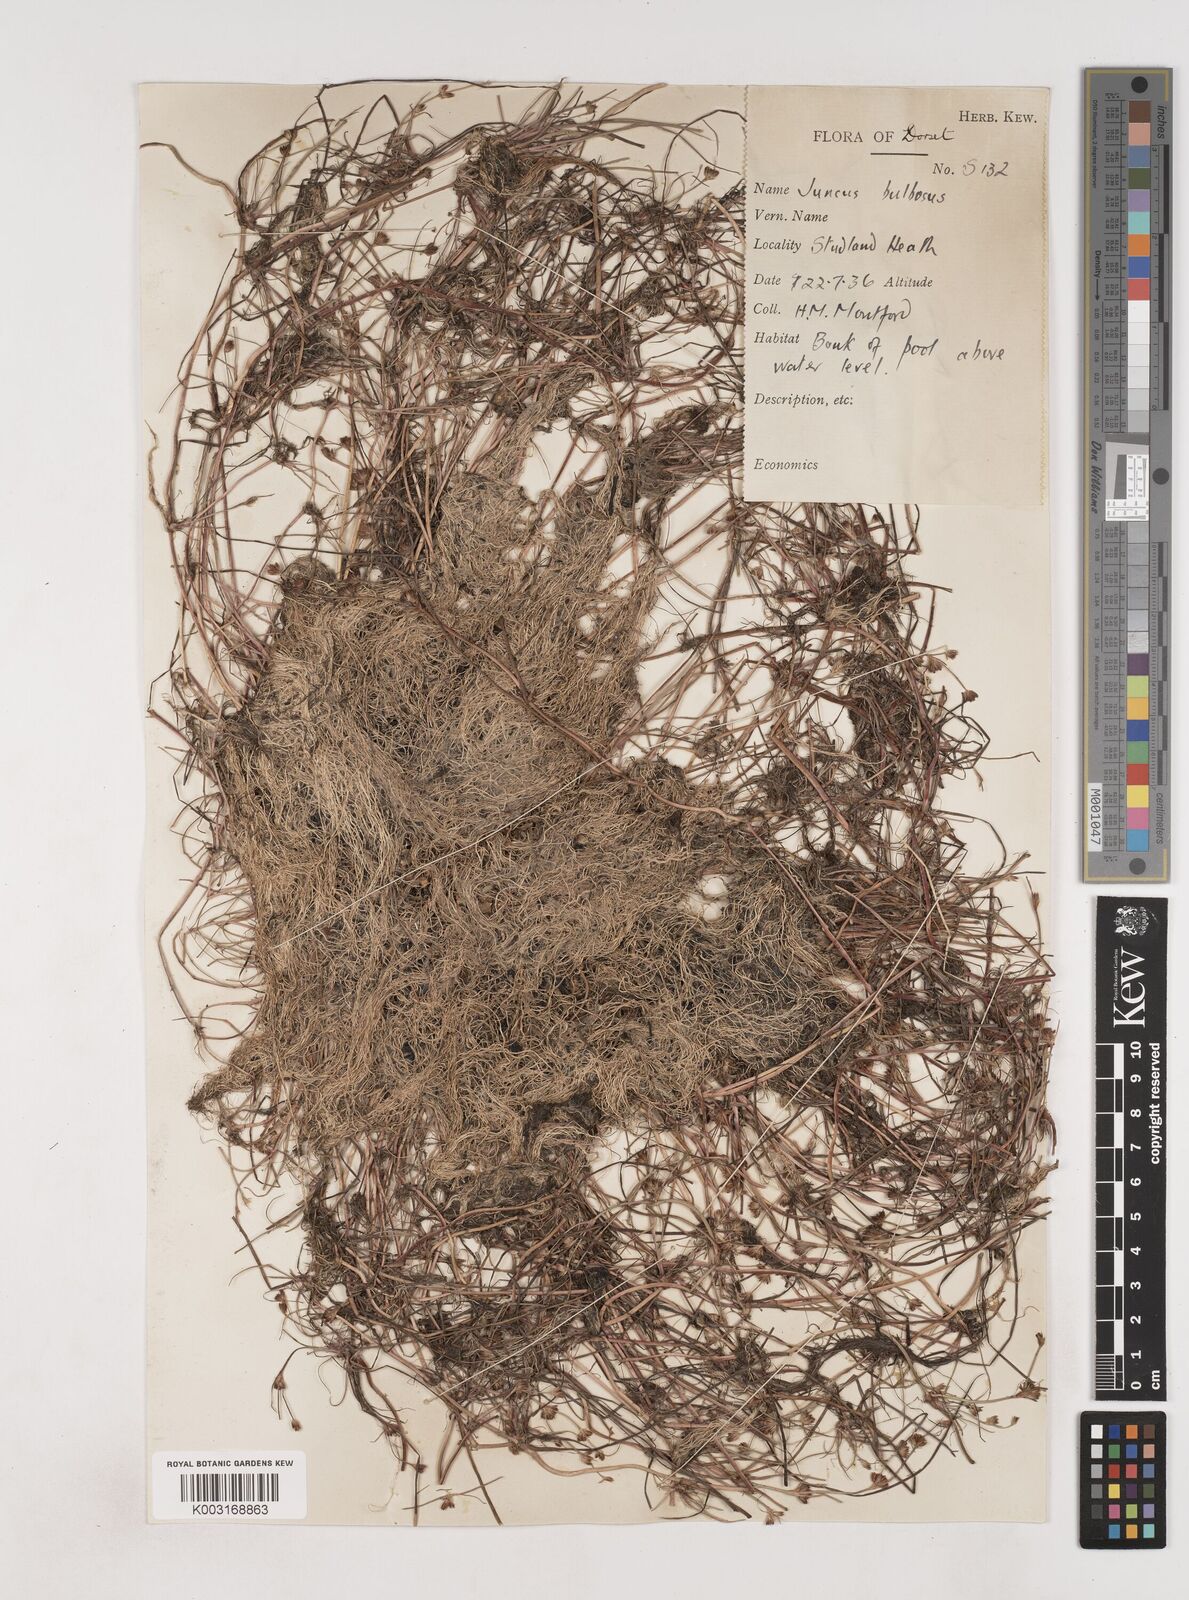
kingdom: Plantae
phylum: Tracheophyta
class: Liliopsida
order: Poales
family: Juncaceae
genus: Juncus
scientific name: Juncus bulbosus
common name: Bulbous rush
